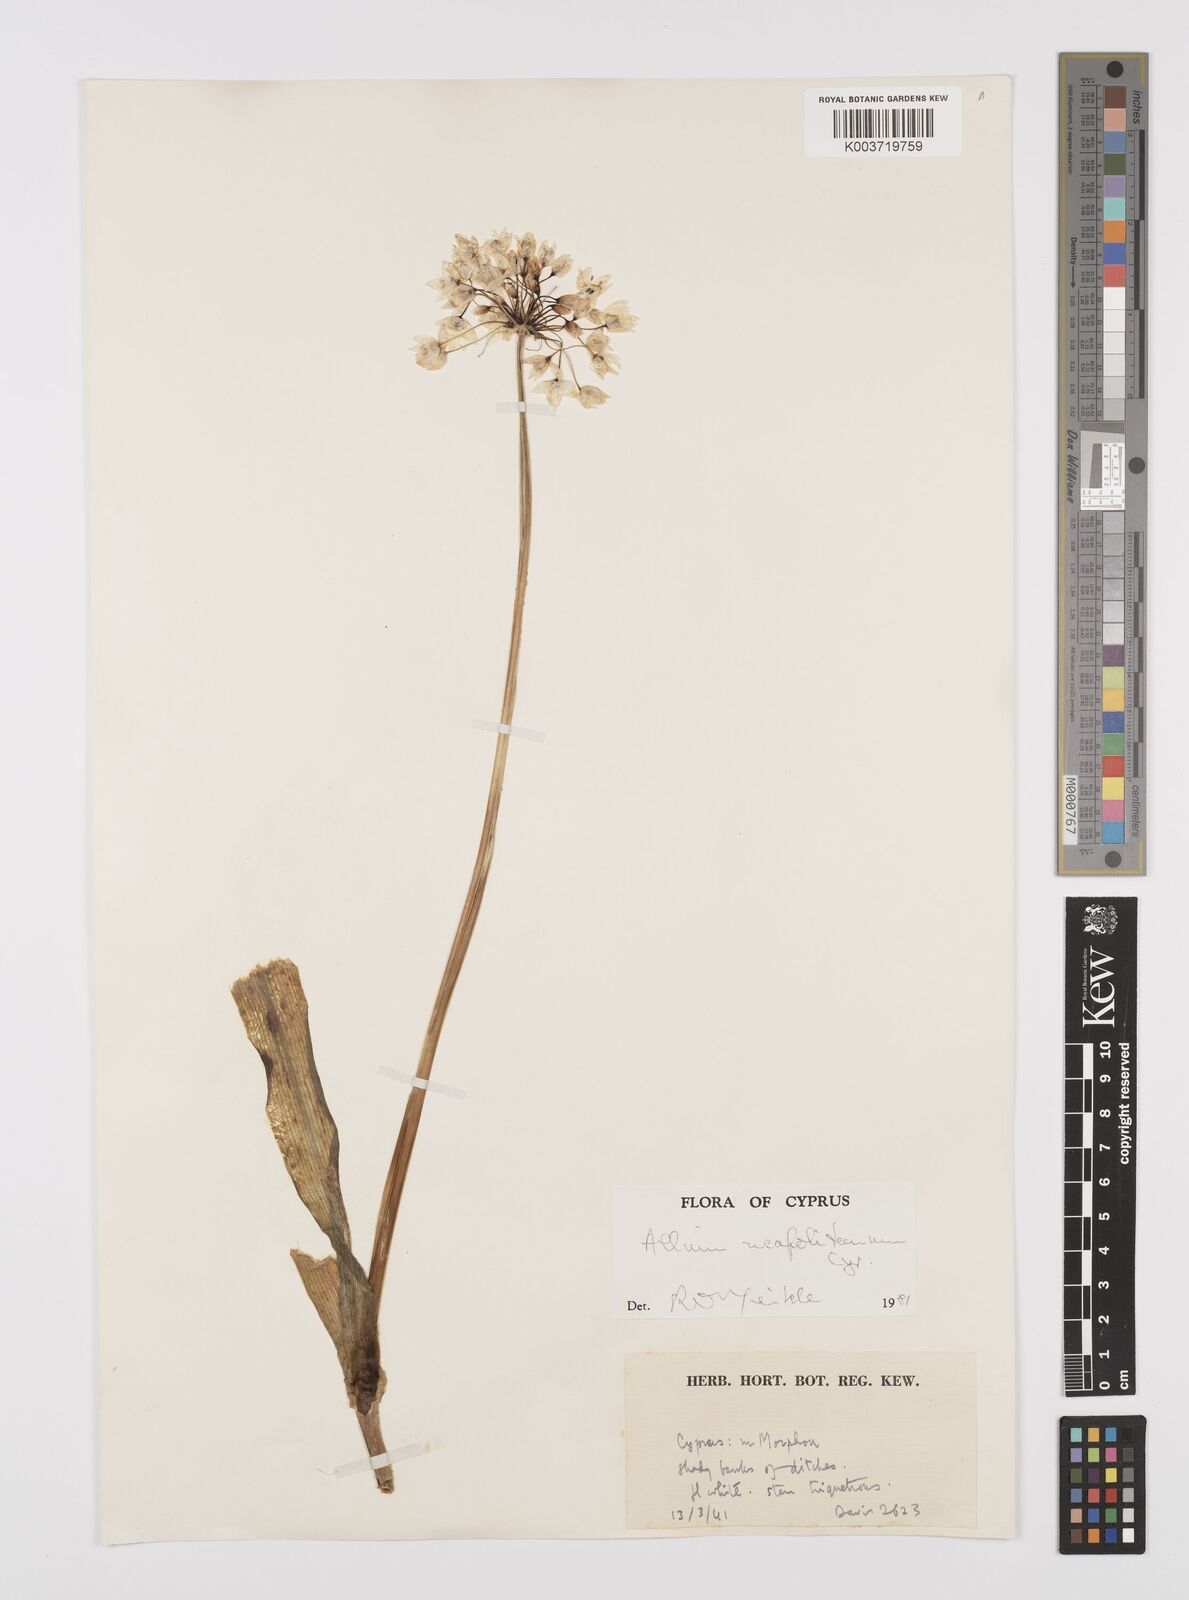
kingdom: Plantae
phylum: Tracheophyta
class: Liliopsida
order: Asparagales
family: Amaryllidaceae
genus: Allium
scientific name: Allium neapolitanum
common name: Neapolitan garlic
